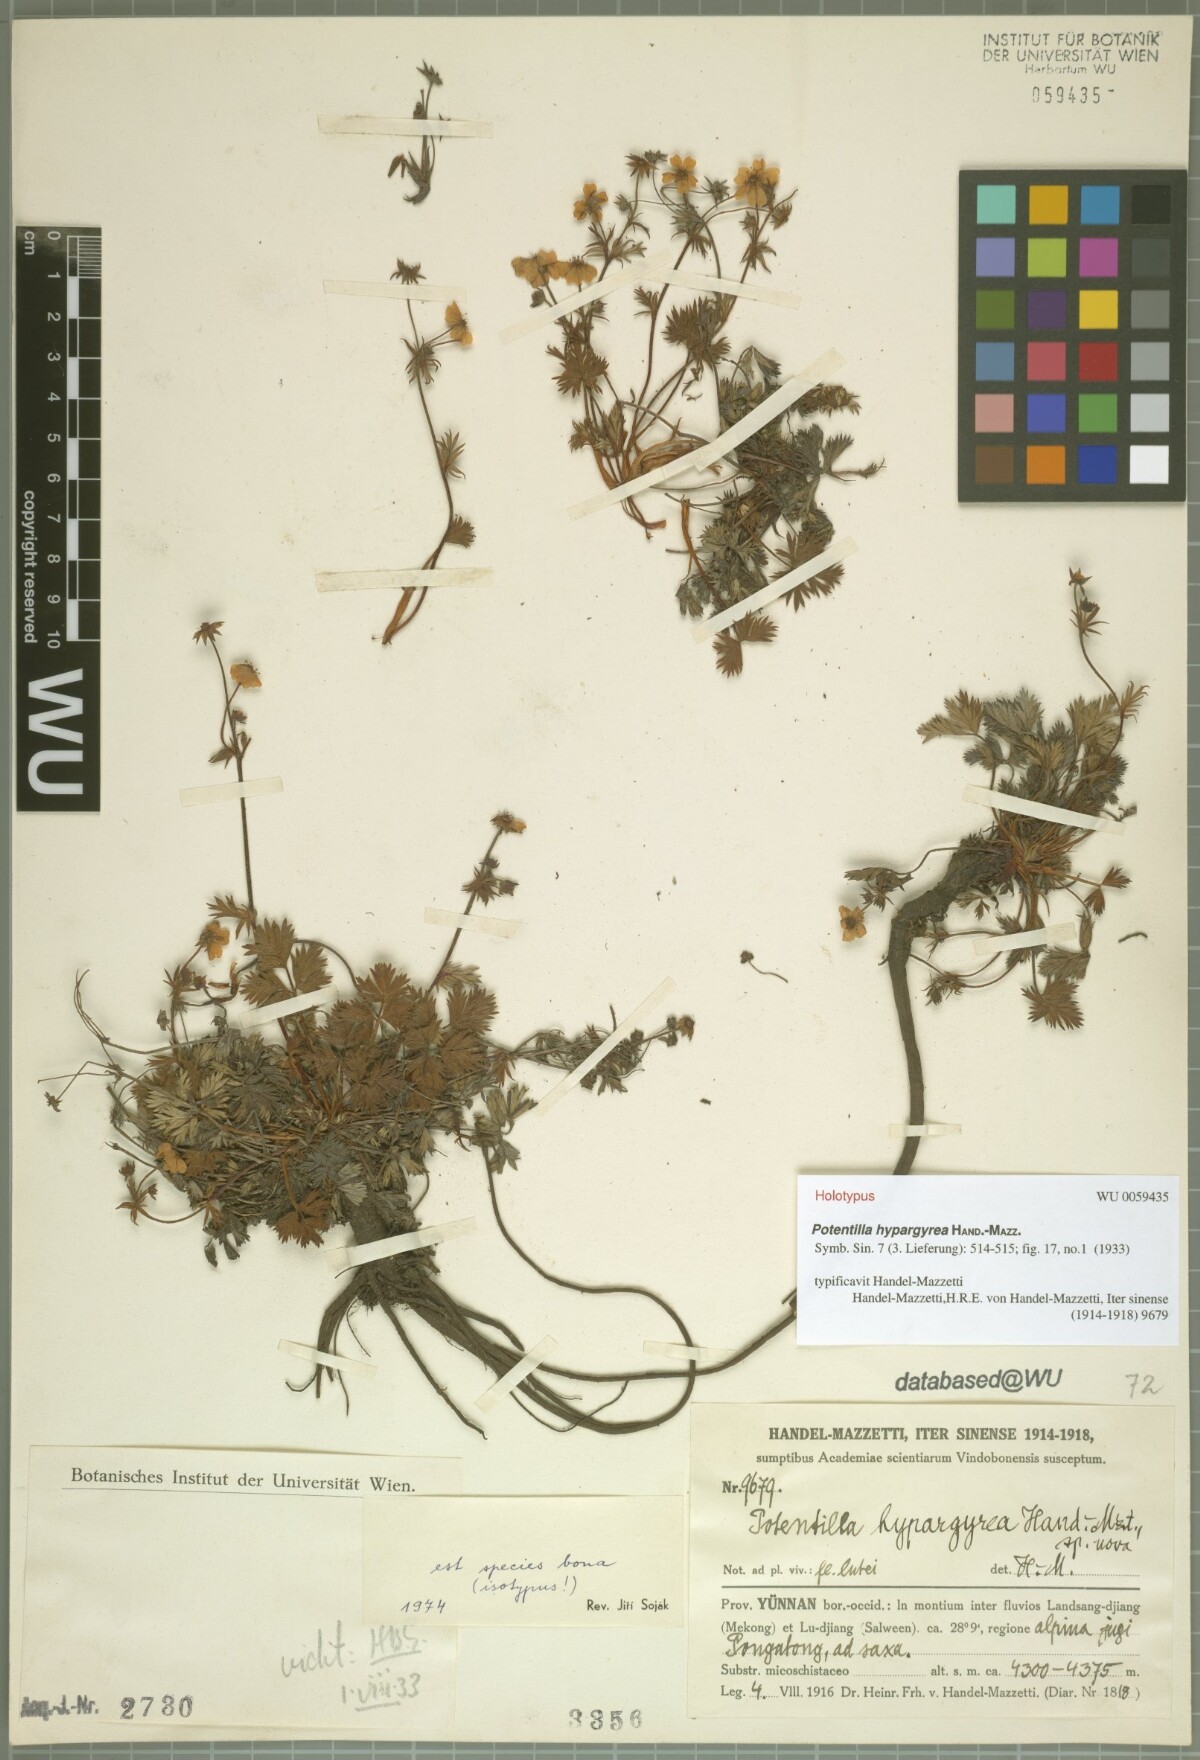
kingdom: Plantae
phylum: Tracheophyta
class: Magnoliopsida
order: Rosales
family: Rosaceae
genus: Potentilla
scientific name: Potentilla hypargyrea
